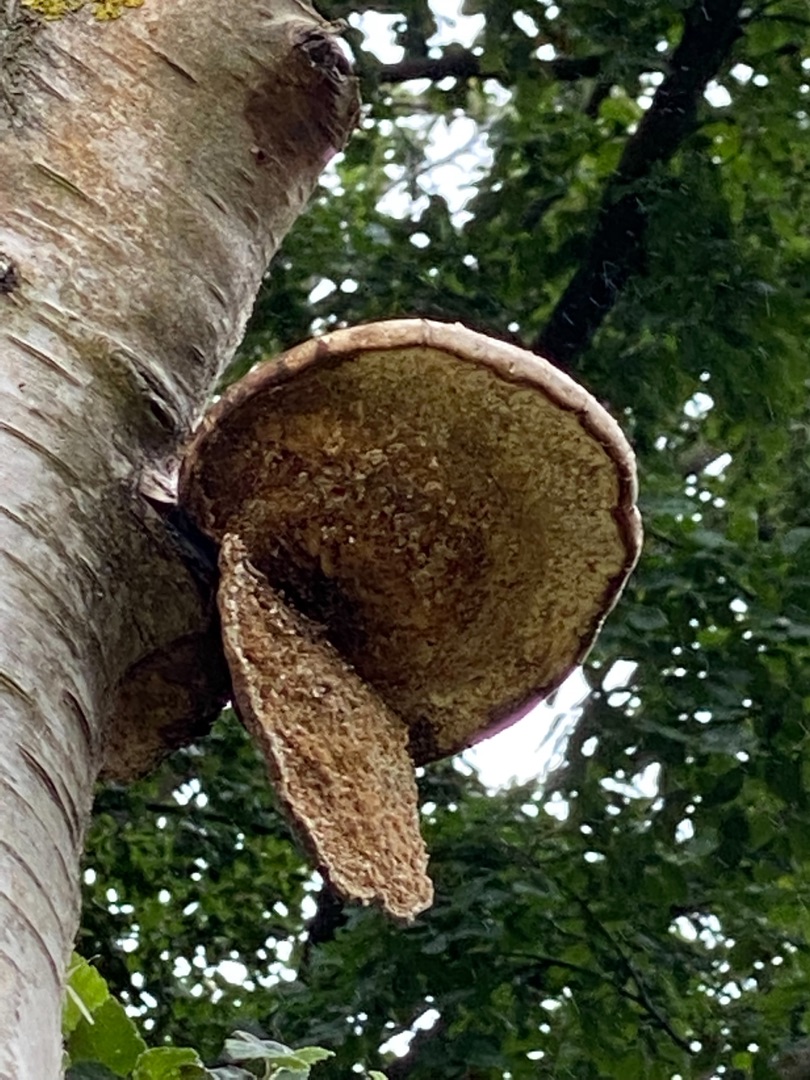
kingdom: Fungi
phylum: Basidiomycota
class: Agaricomycetes
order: Polyporales
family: Fomitopsidaceae
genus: Fomitopsis
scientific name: Fomitopsis betulina
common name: Birkeporesvamp
